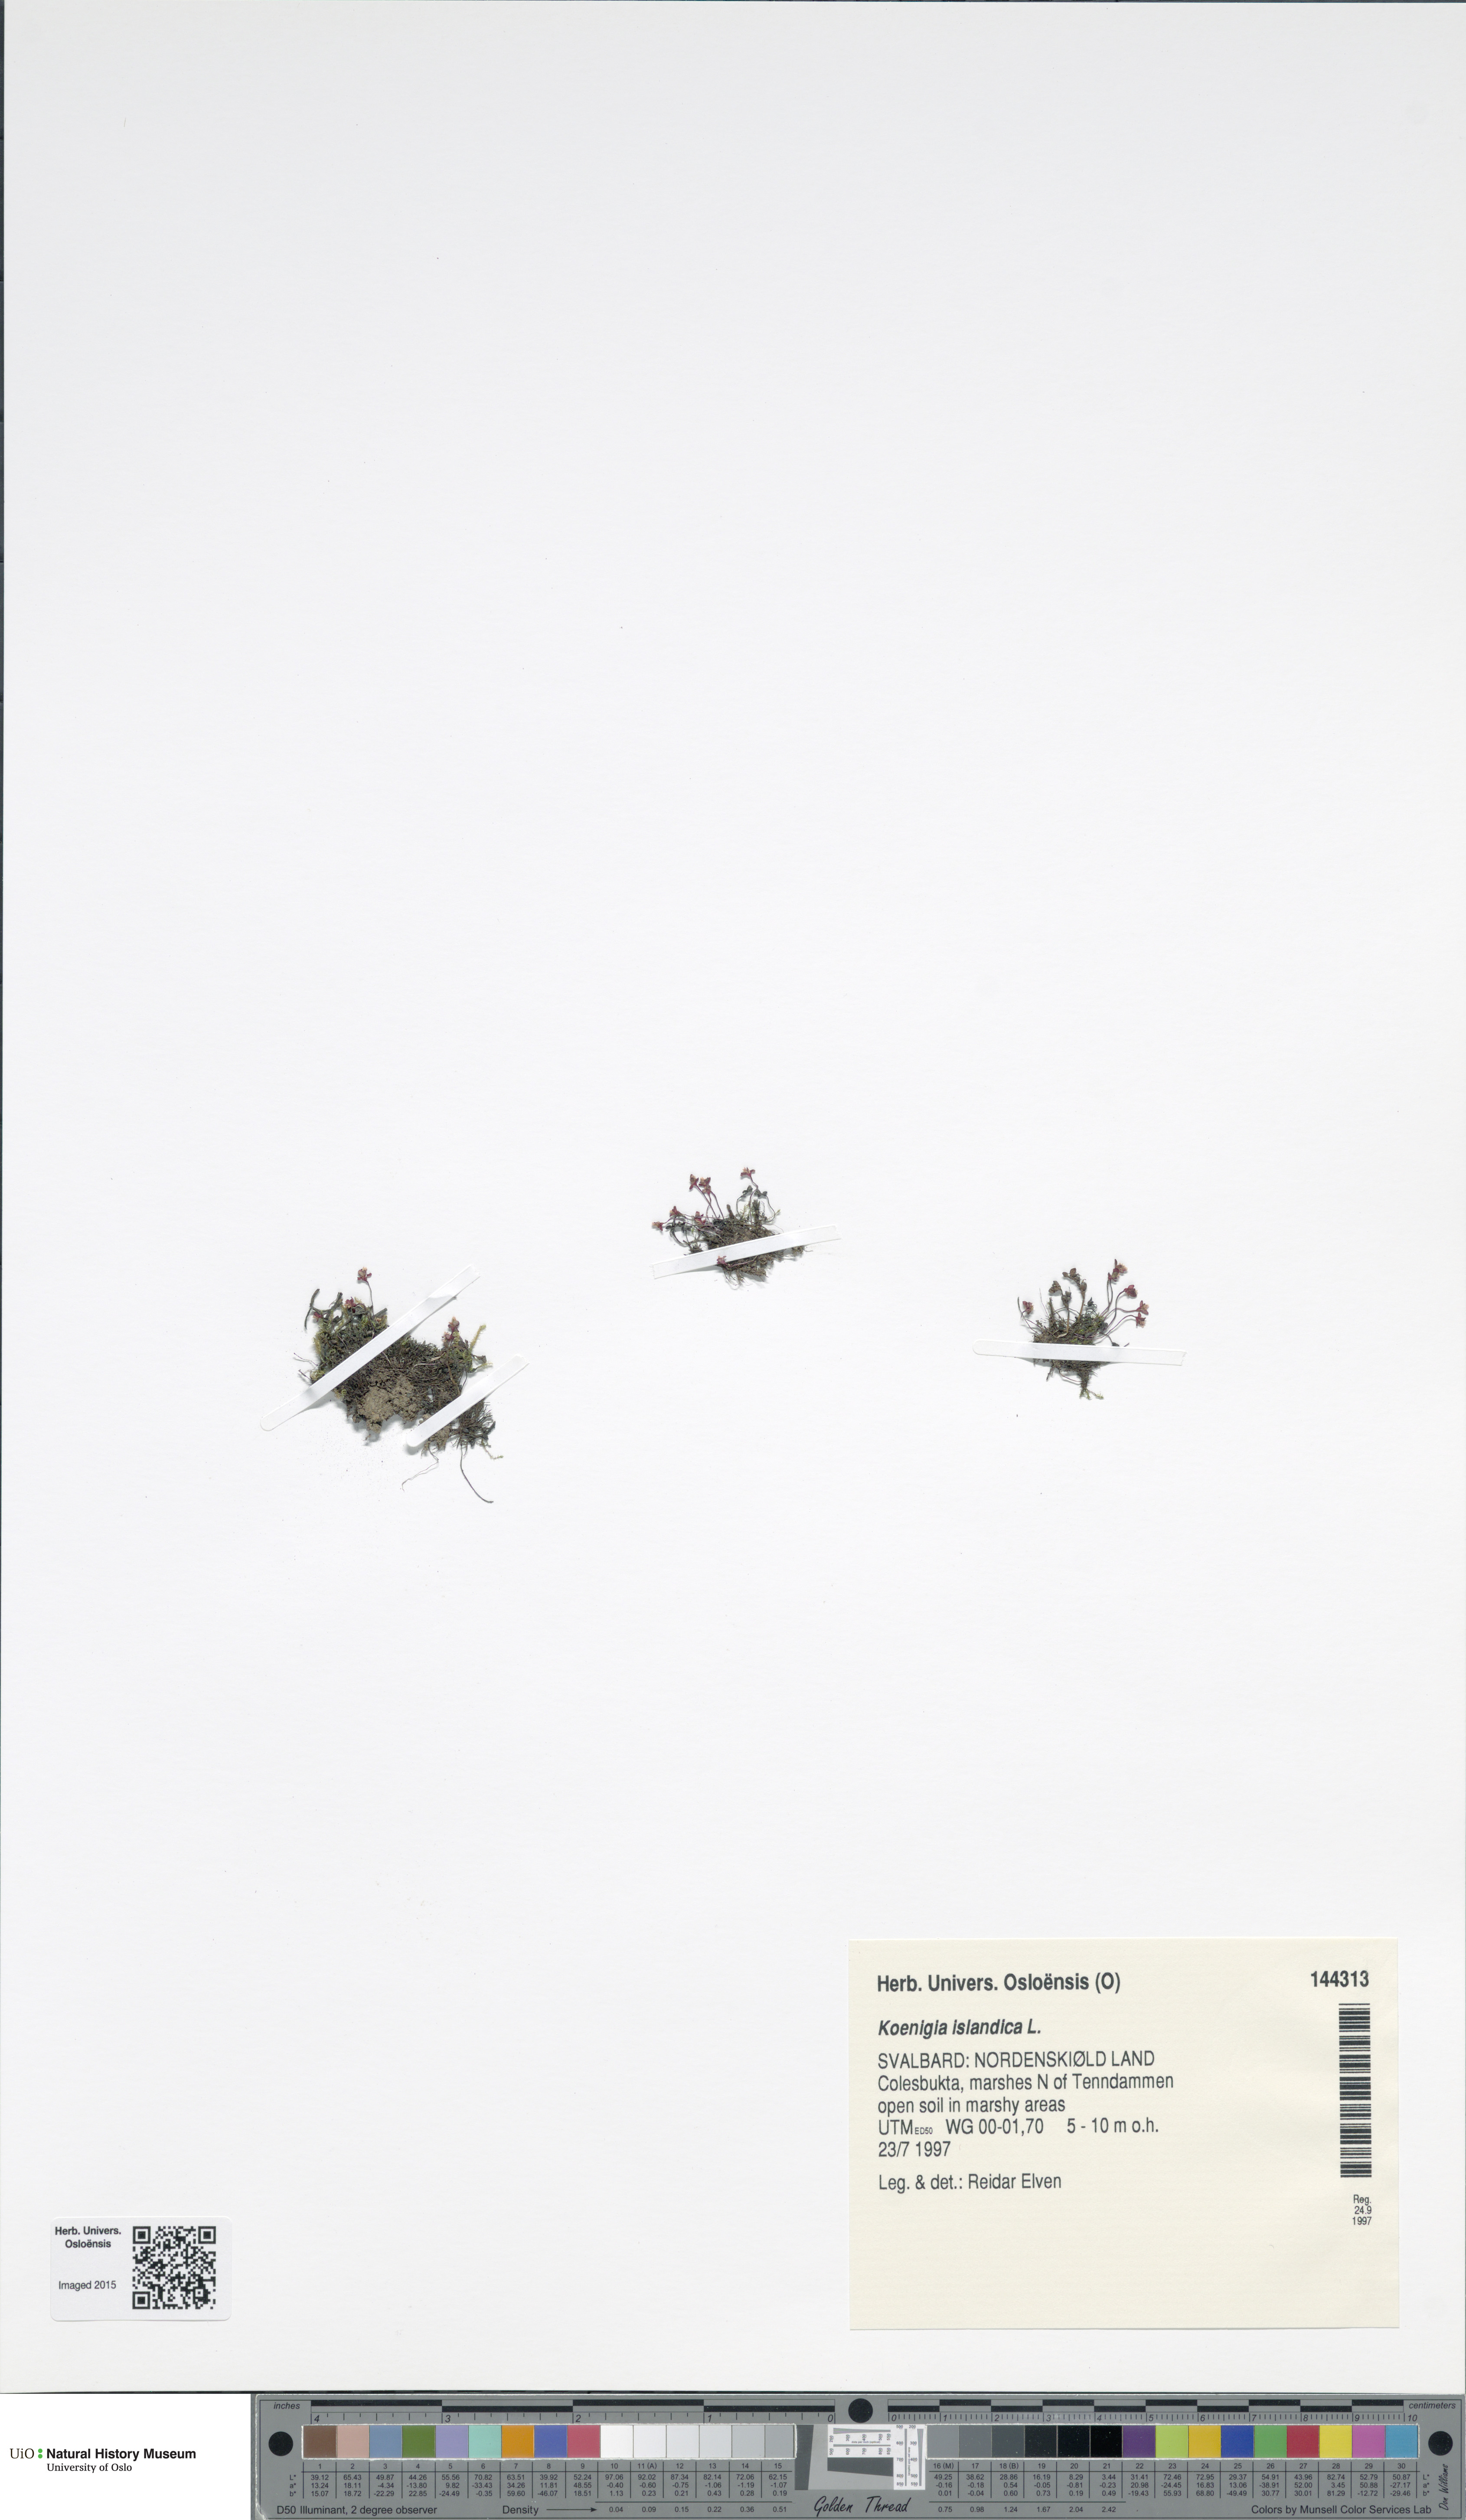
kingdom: Plantae
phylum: Tracheophyta
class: Magnoliopsida
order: Caryophyllales
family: Polygonaceae
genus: Koenigia
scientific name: Koenigia islandica
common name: Iceland-purslane
